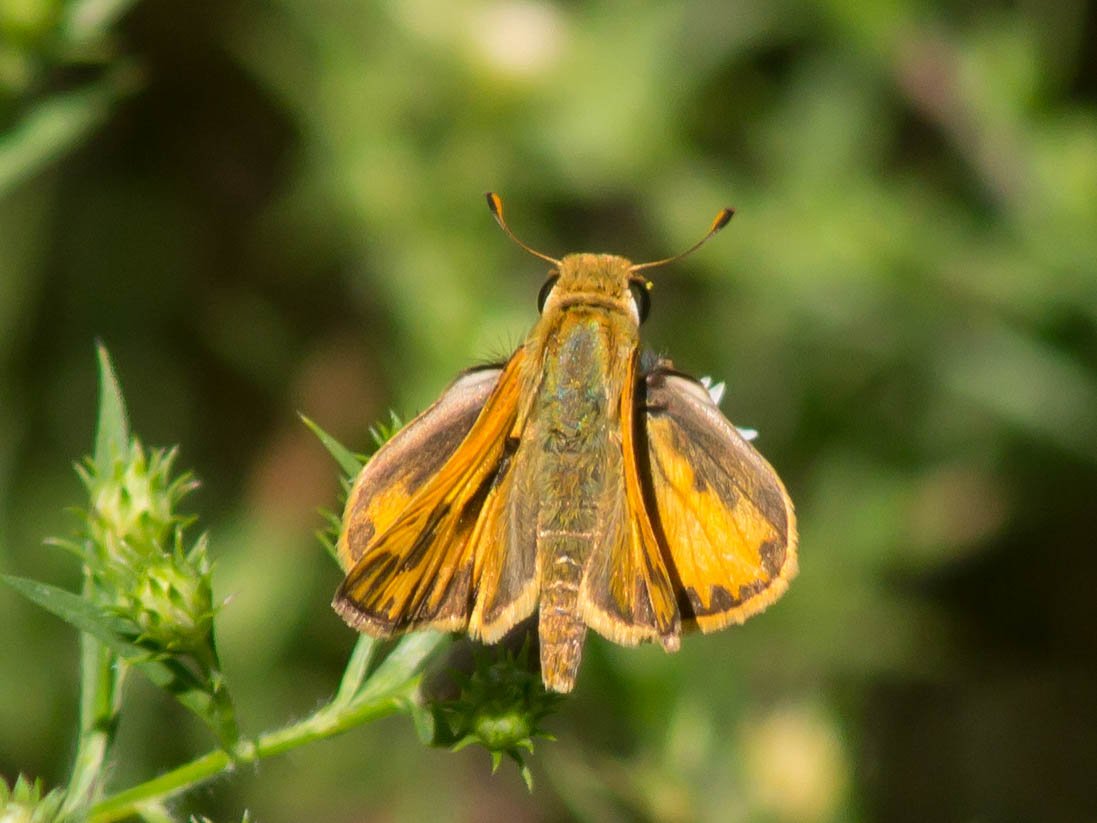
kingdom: Animalia
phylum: Arthropoda
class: Insecta
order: Lepidoptera
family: Hesperiidae
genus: Hylephila
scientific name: Hylephila phyleus
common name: Fiery Skipper
